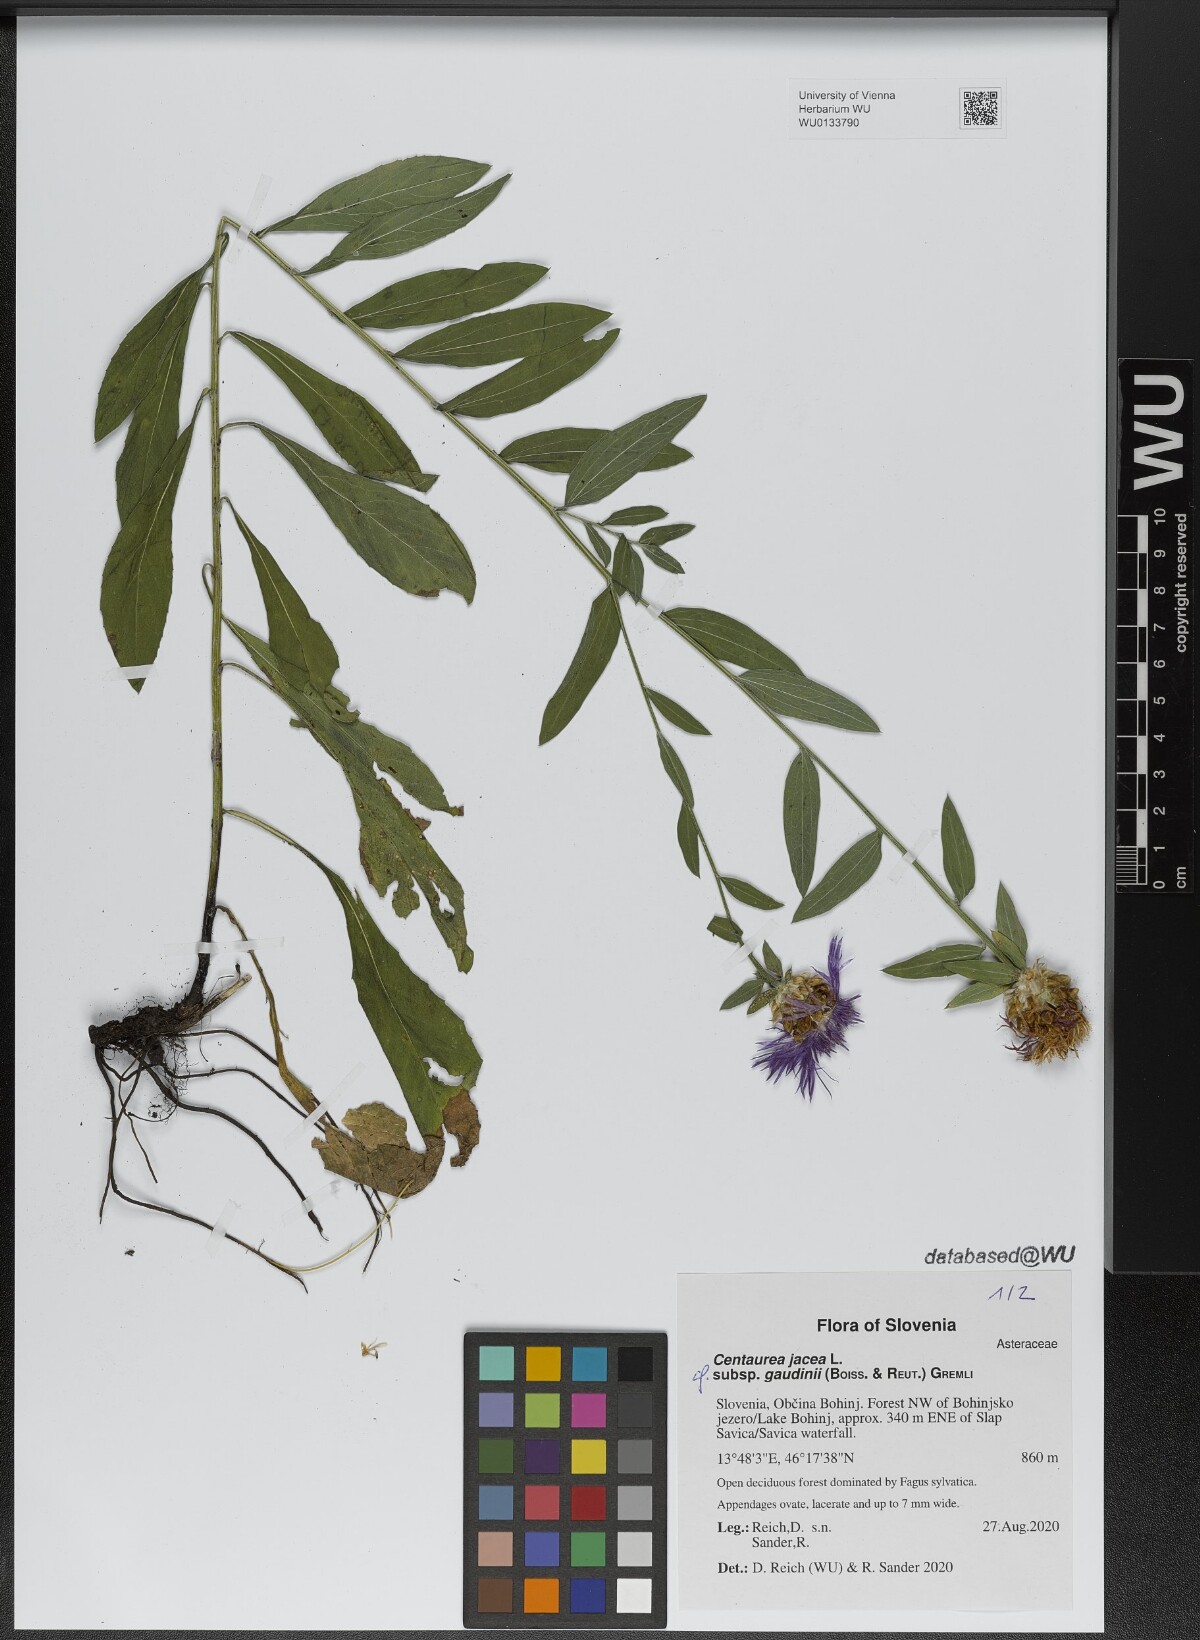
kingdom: Plantae
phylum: Tracheophyta
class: Magnoliopsida
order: Asterales
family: Asteraceae
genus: Centaurea
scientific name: Centaurea jacea
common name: Brown knapweed
